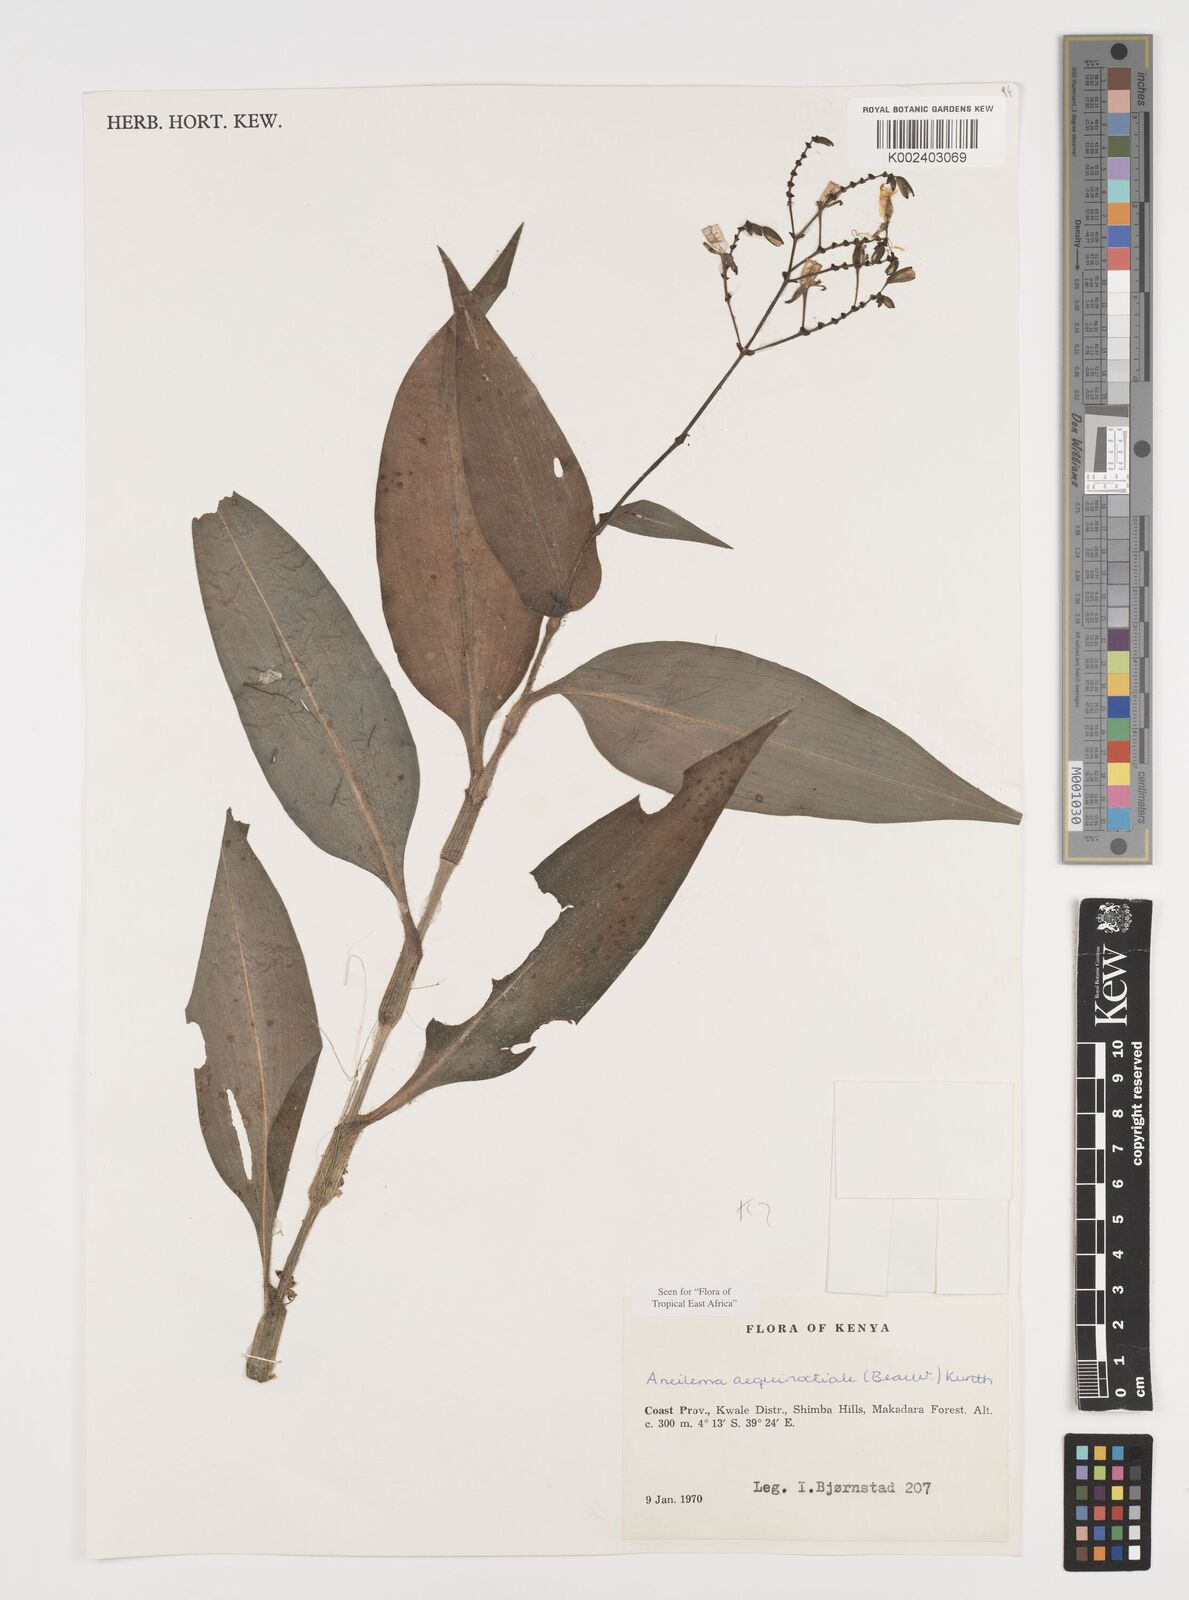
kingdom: Plantae
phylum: Tracheophyta
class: Liliopsida
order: Commelinales
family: Commelinaceae
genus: Aneilema
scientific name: Aneilema aequinoctiale
